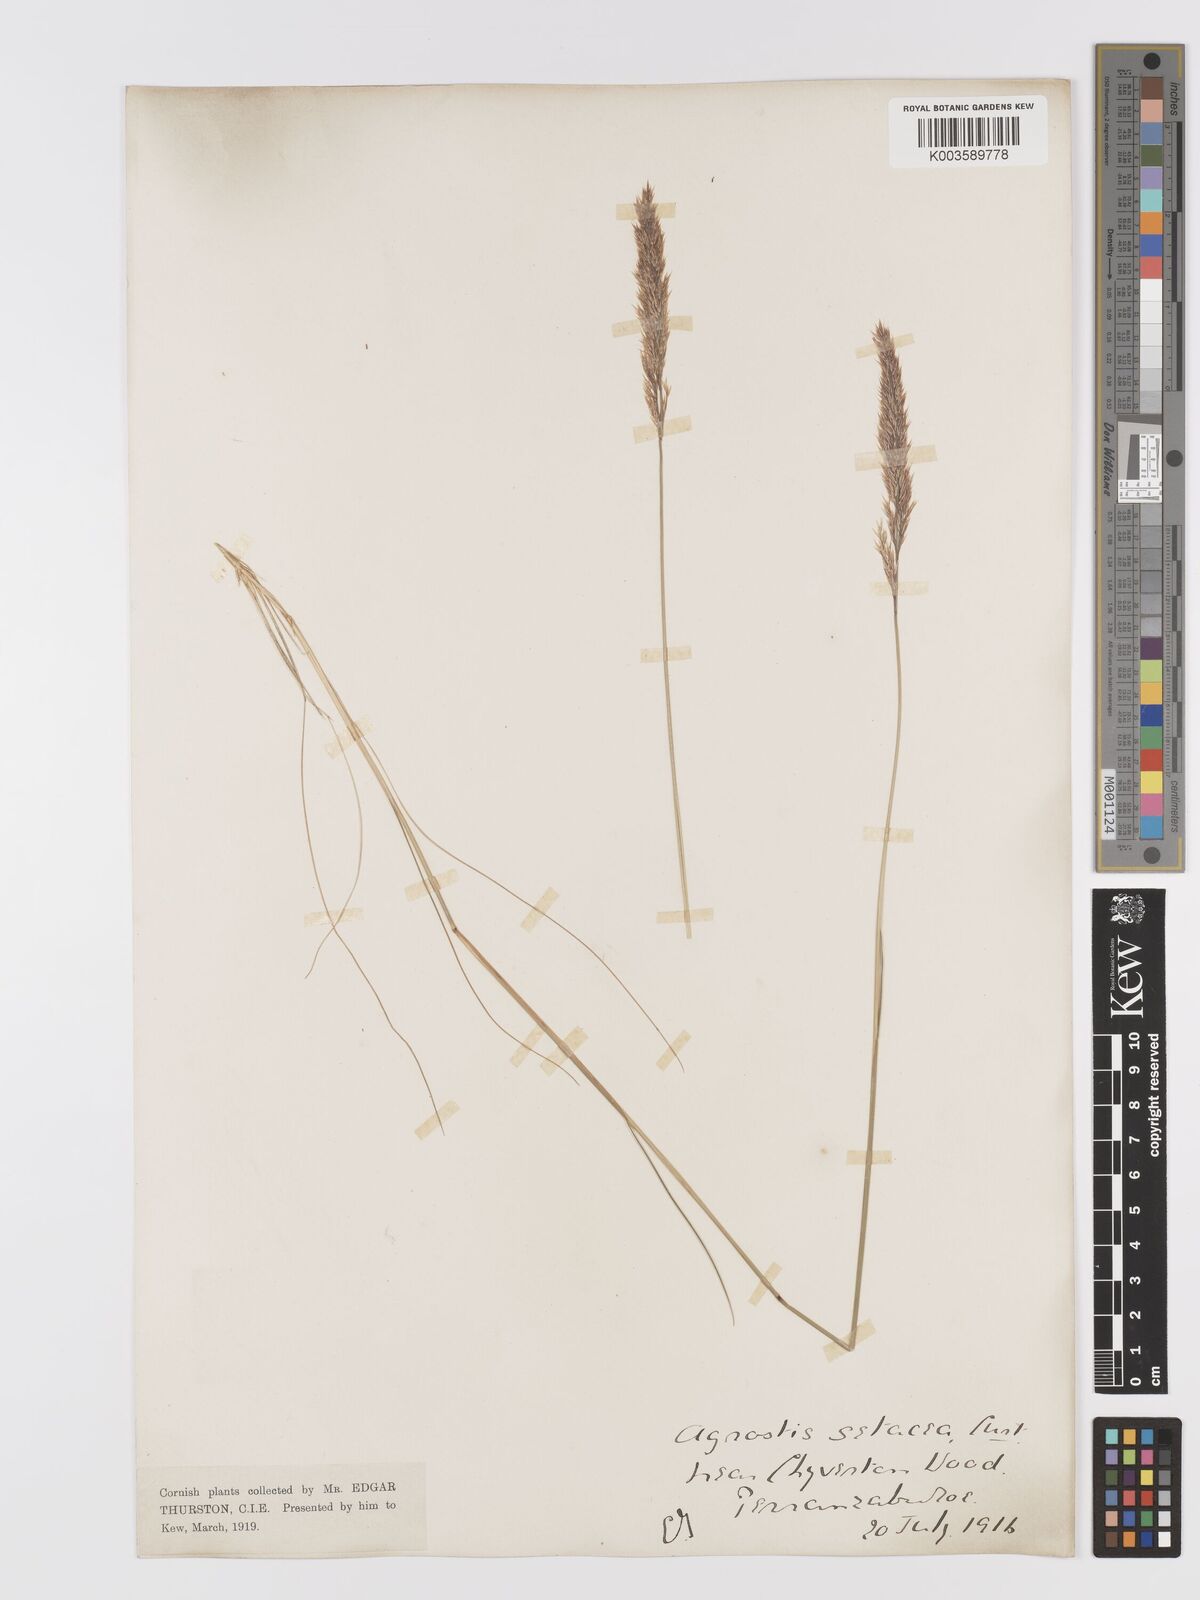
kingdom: Plantae
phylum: Tracheophyta
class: Liliopsida
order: Poales
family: Poaceae
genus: Alpagrostis
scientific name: Alpagrostis setacea
